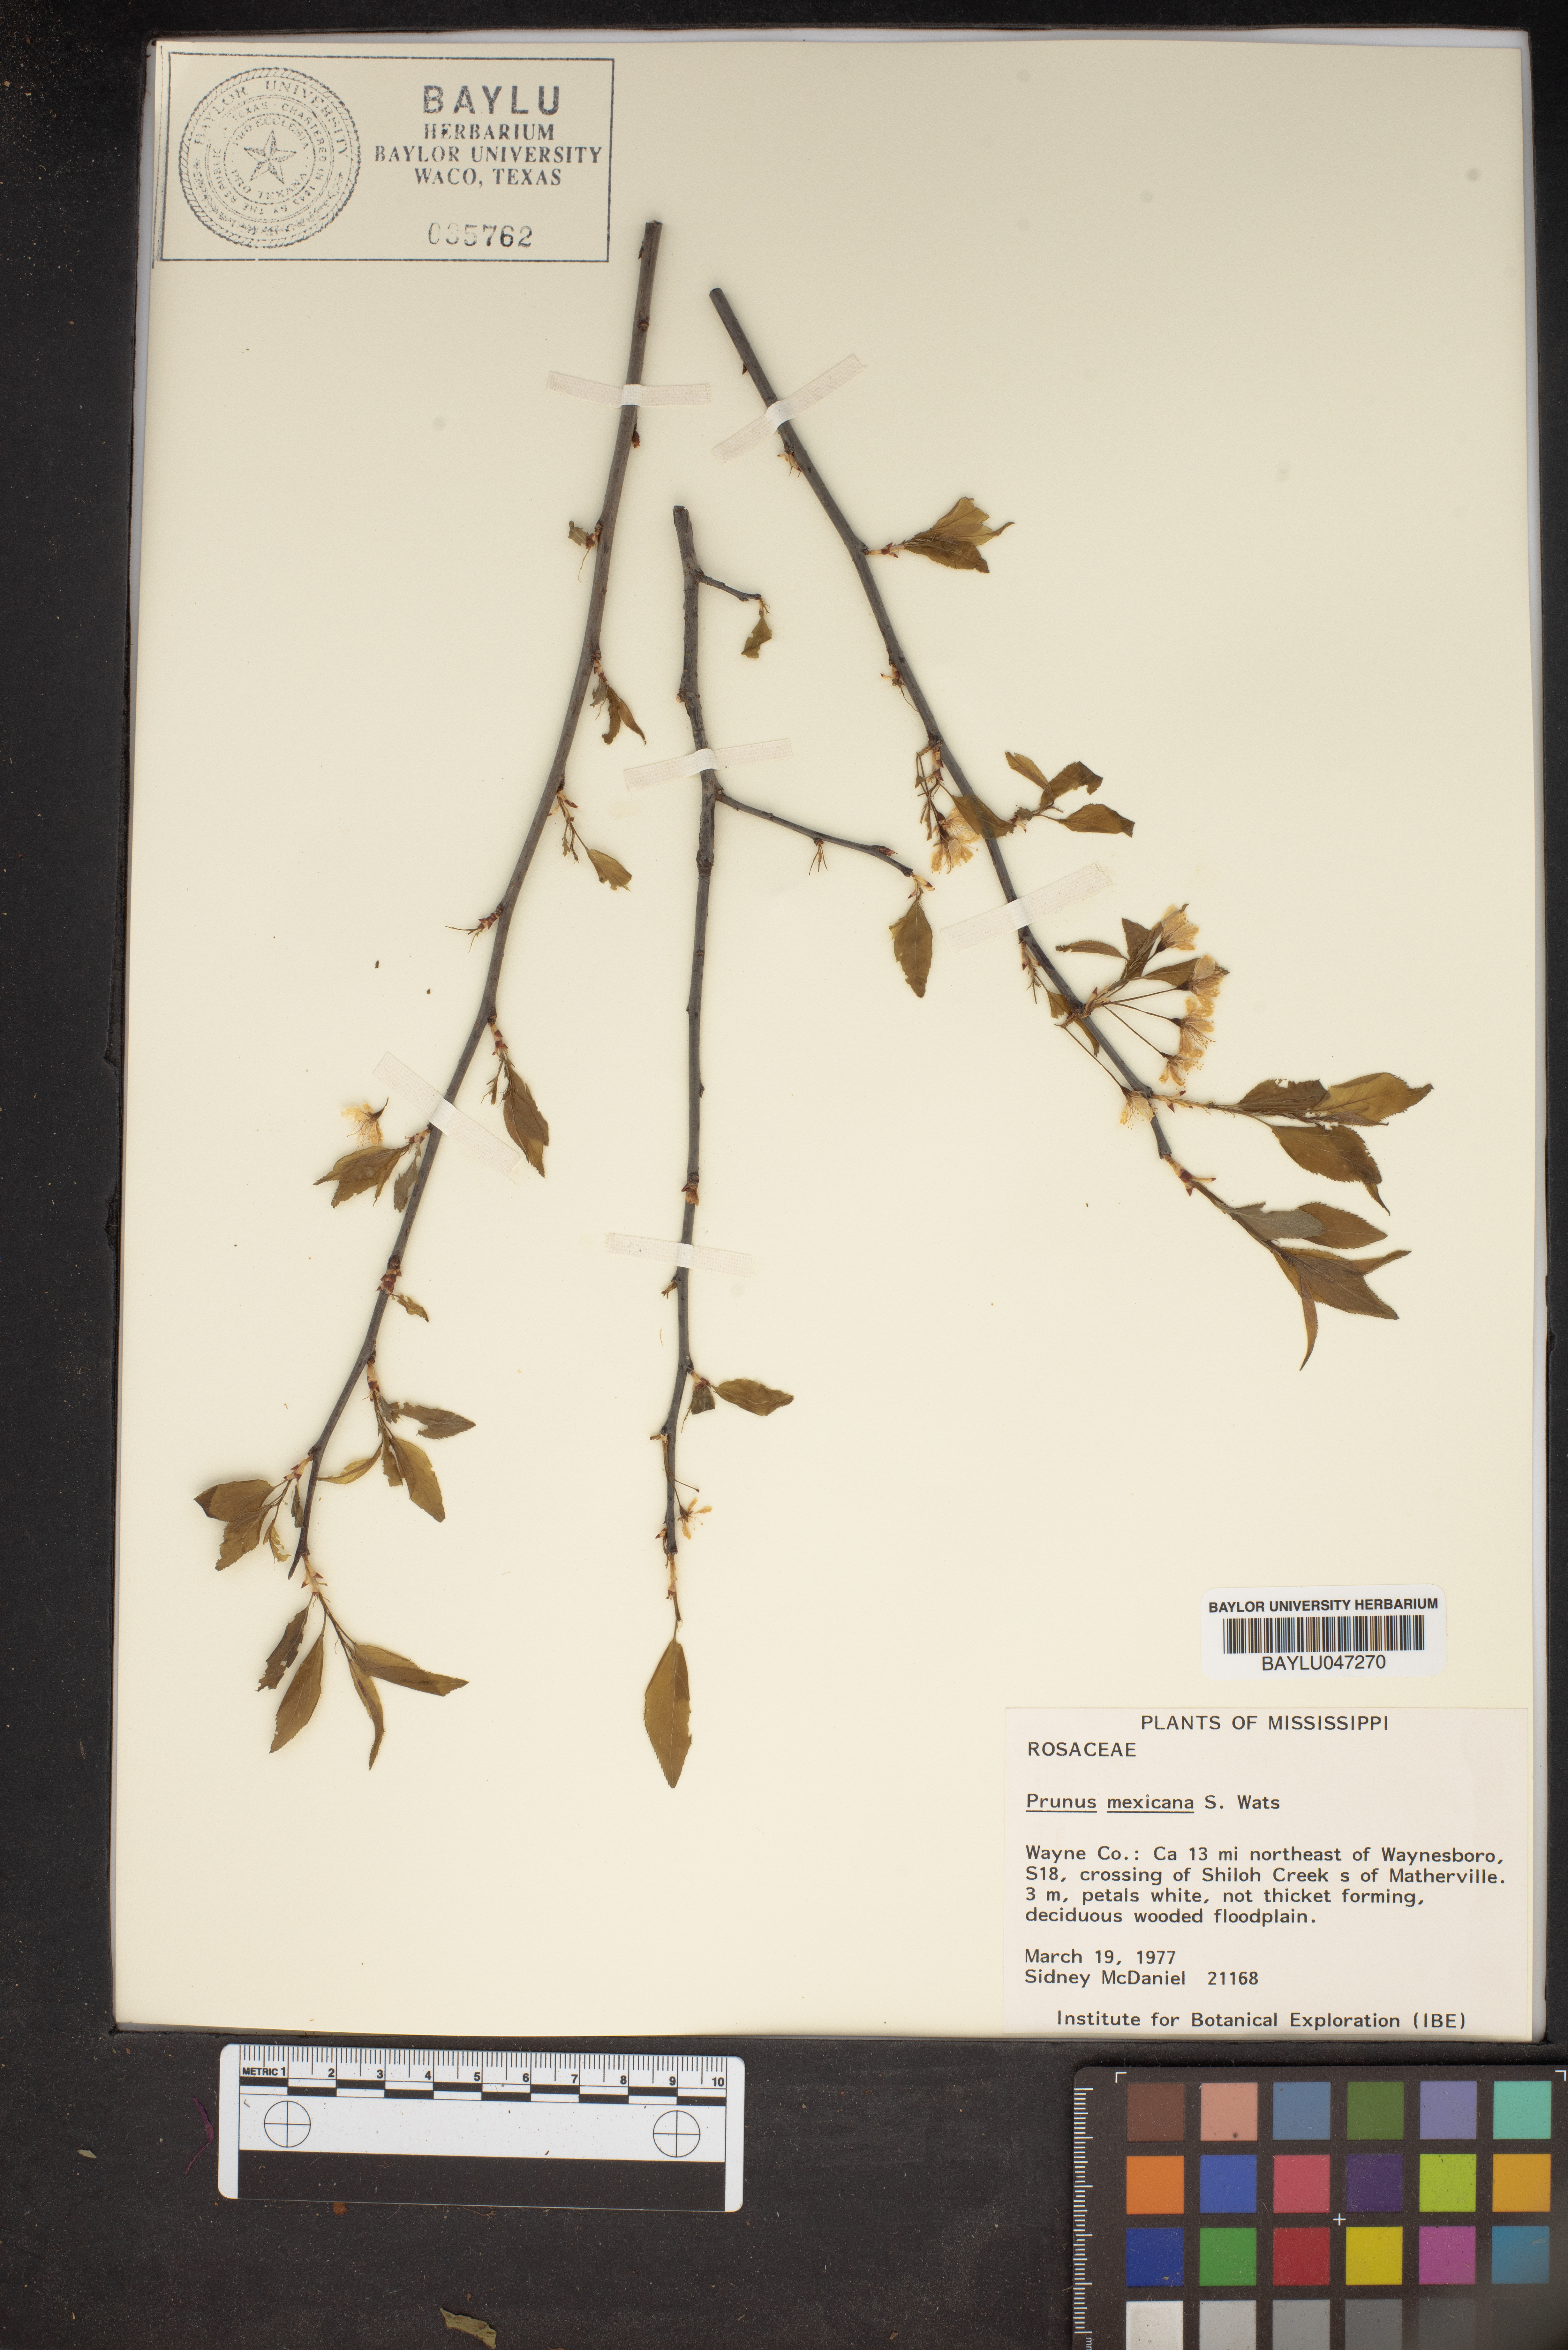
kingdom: Plantae
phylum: Tracheophyta
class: Magnoliopsida
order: Rosales
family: Rosaceae
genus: Prunus
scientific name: Prunus mexicana
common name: Mexican plum
